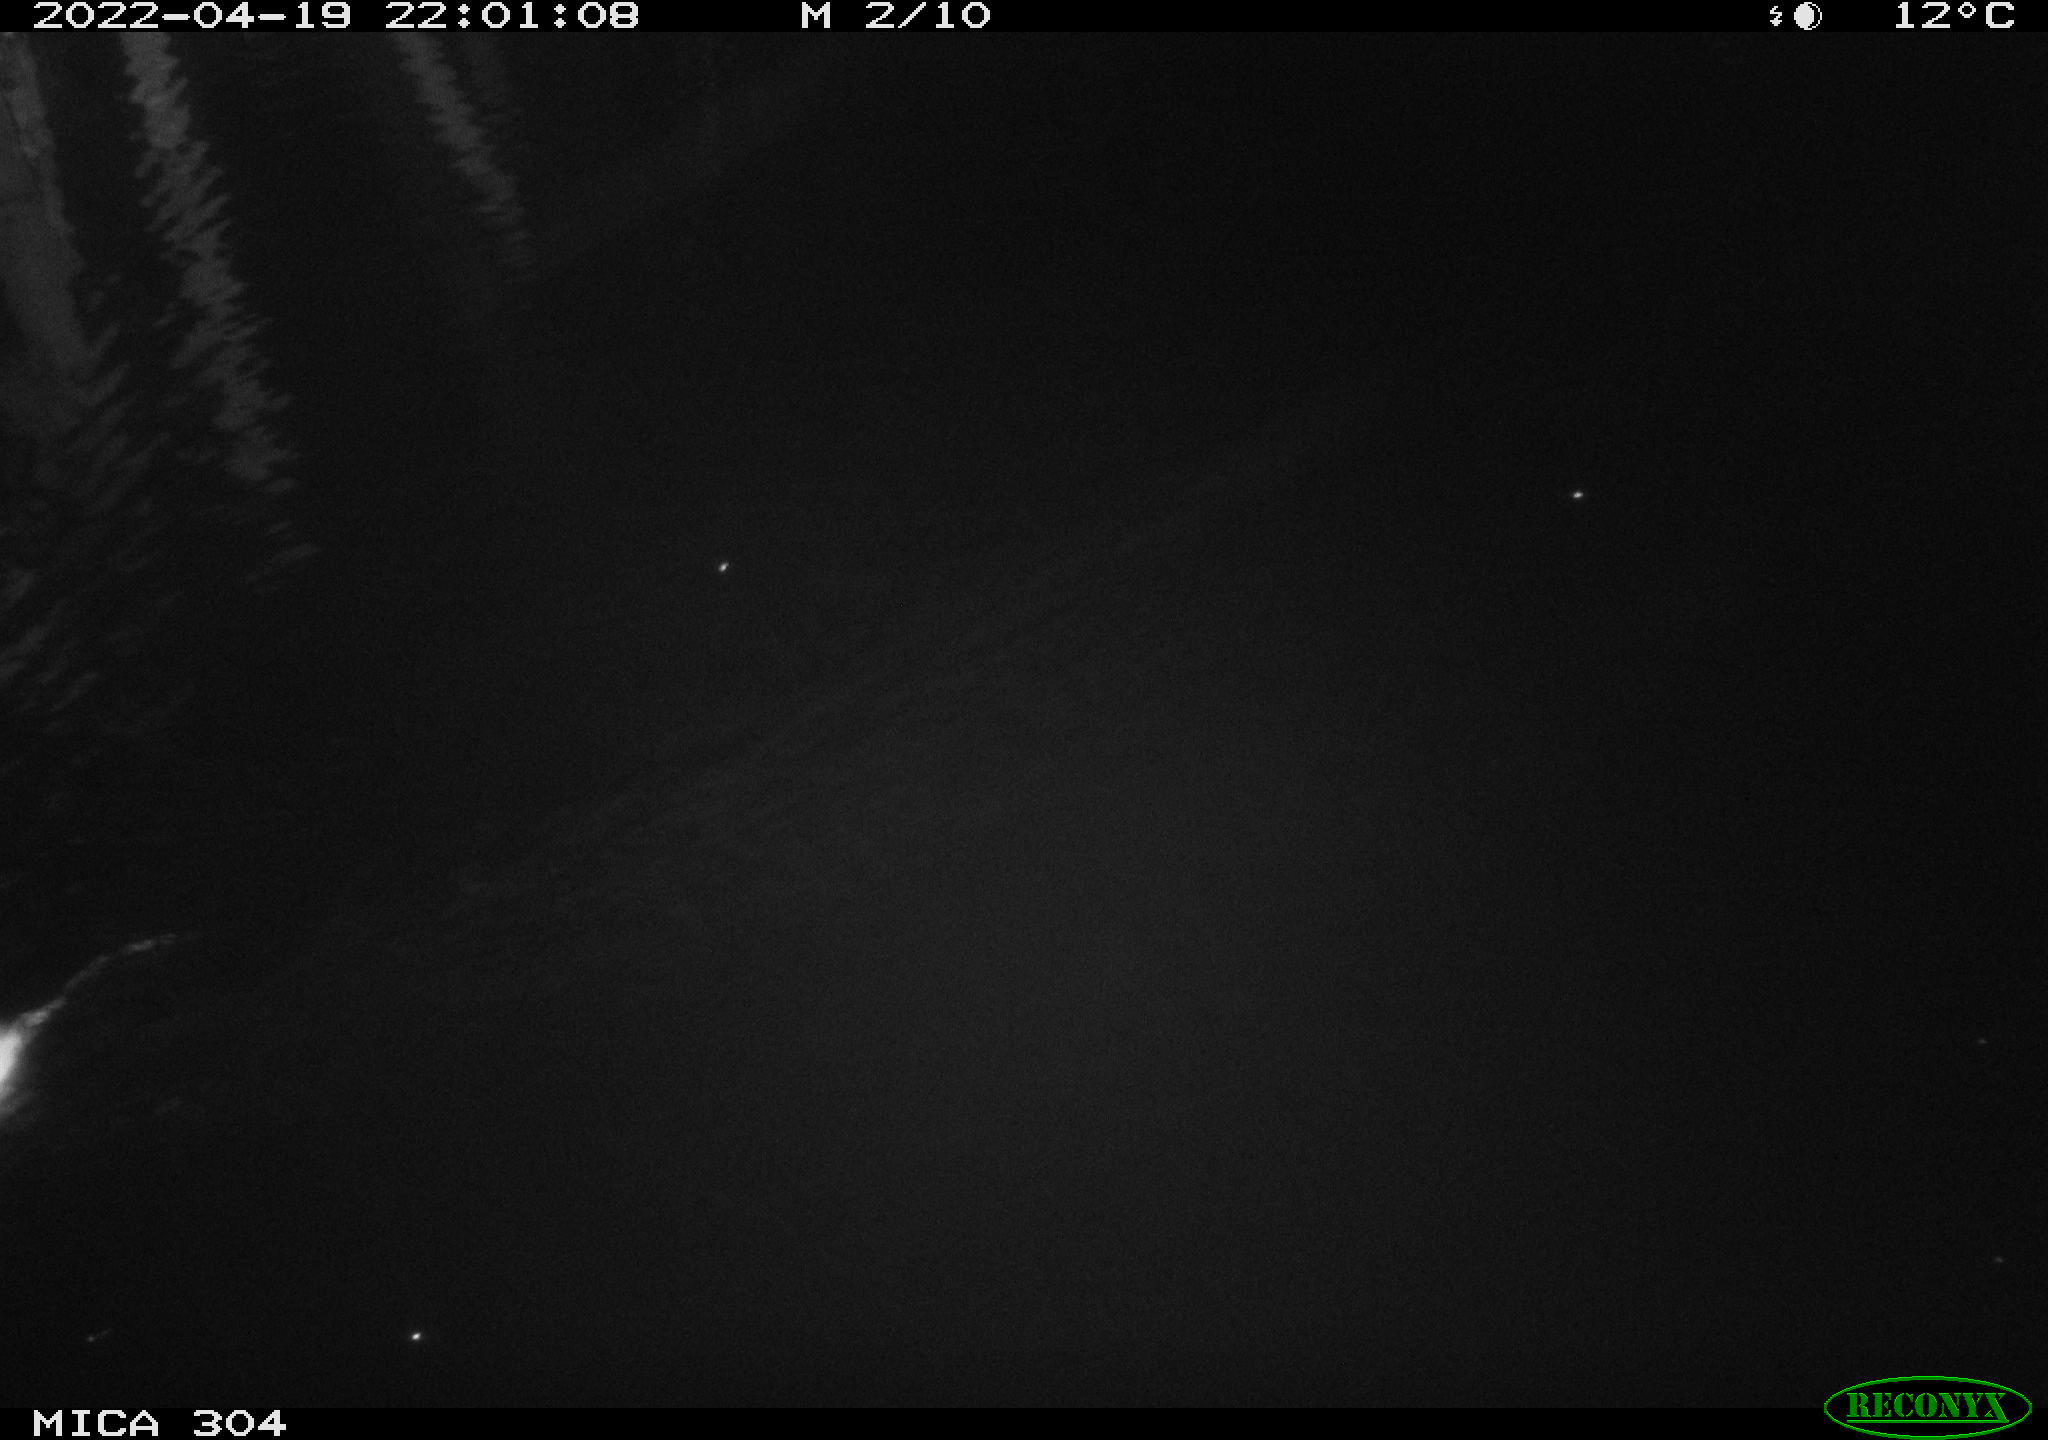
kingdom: Animalia
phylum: Chordata
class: Mammalia
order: Rodentia
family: Muridae
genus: Rattus
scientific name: Rattus norvegicus
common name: Brown rat
